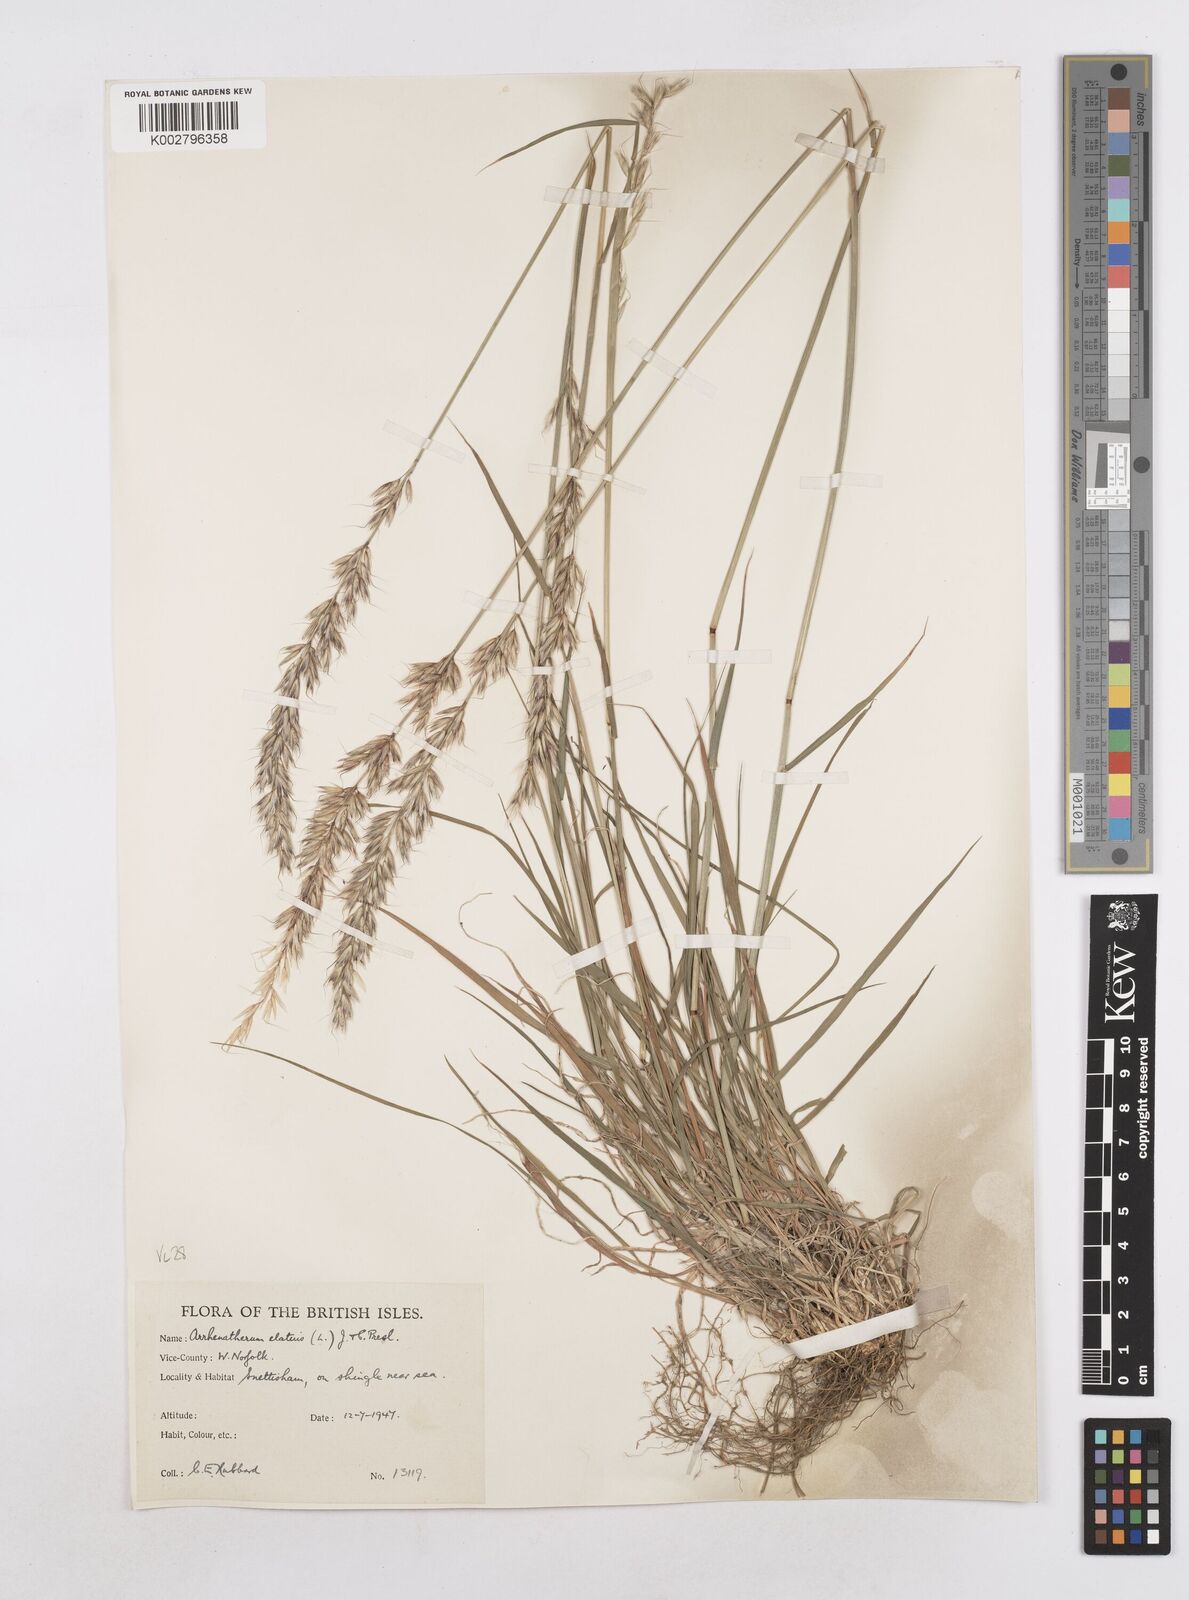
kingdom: Plantae
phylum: Tracheophyta
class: Liliopsida
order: Poales
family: Poaceae
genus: Arrhenatherum
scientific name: Arrhenatherum elatius
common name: Tall oatgrass
